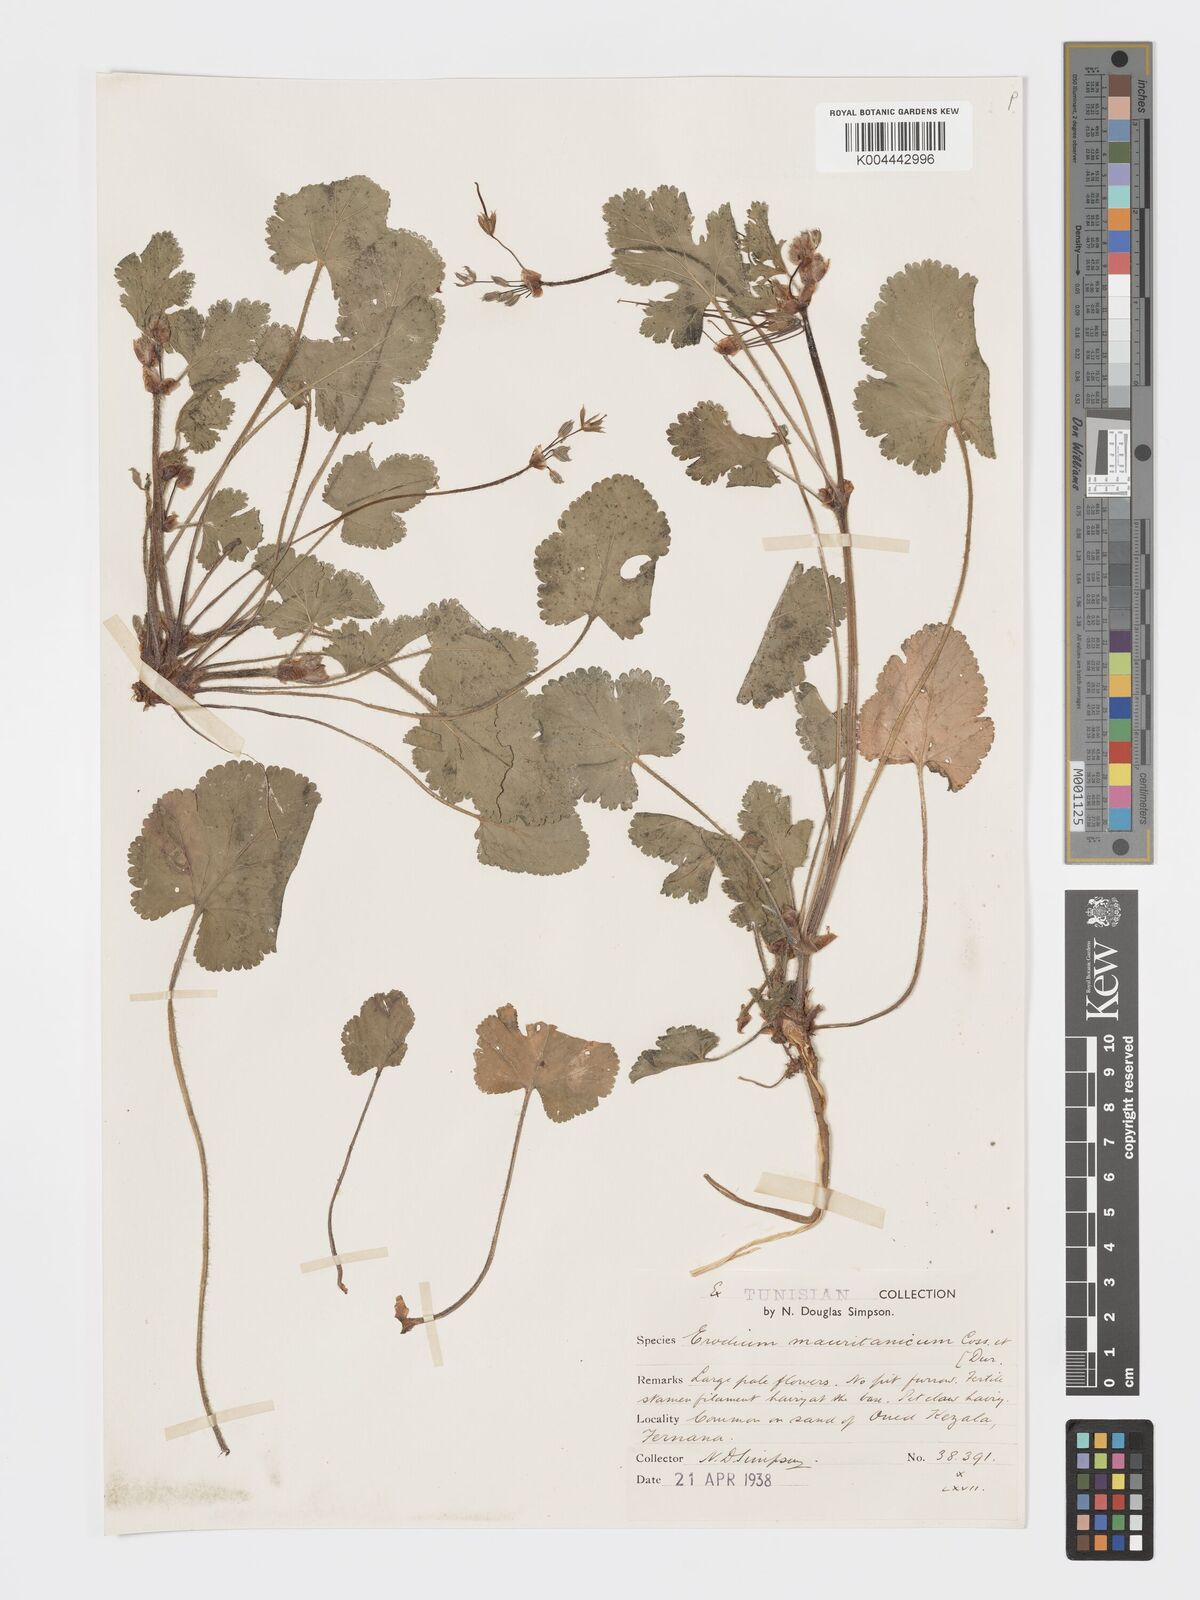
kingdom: Plantae
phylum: Tracheophyta
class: Magnoliopsida
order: Geraniales
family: Geraniaceae
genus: Erodium
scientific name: Erodium
